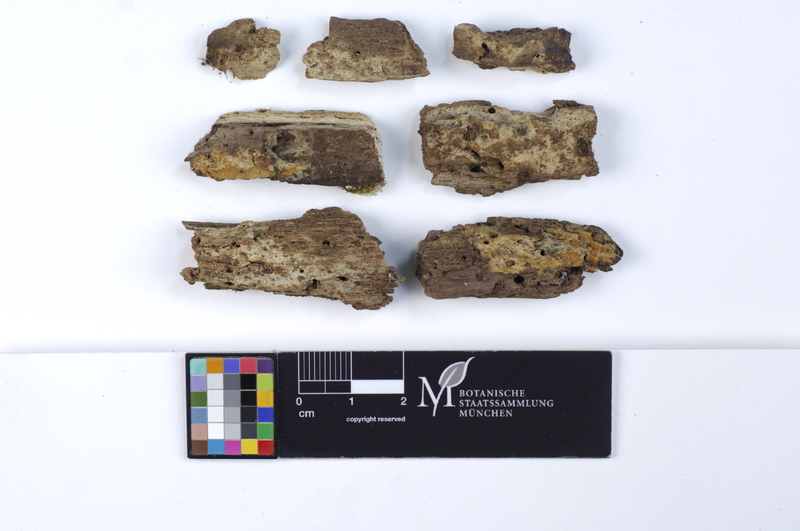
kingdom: Fungi
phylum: Basidiomycota
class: Agaricomycetes
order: Cantharellales
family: Botryobasidiaceae
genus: Botryobasidium
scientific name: Botryobasidium aureum
